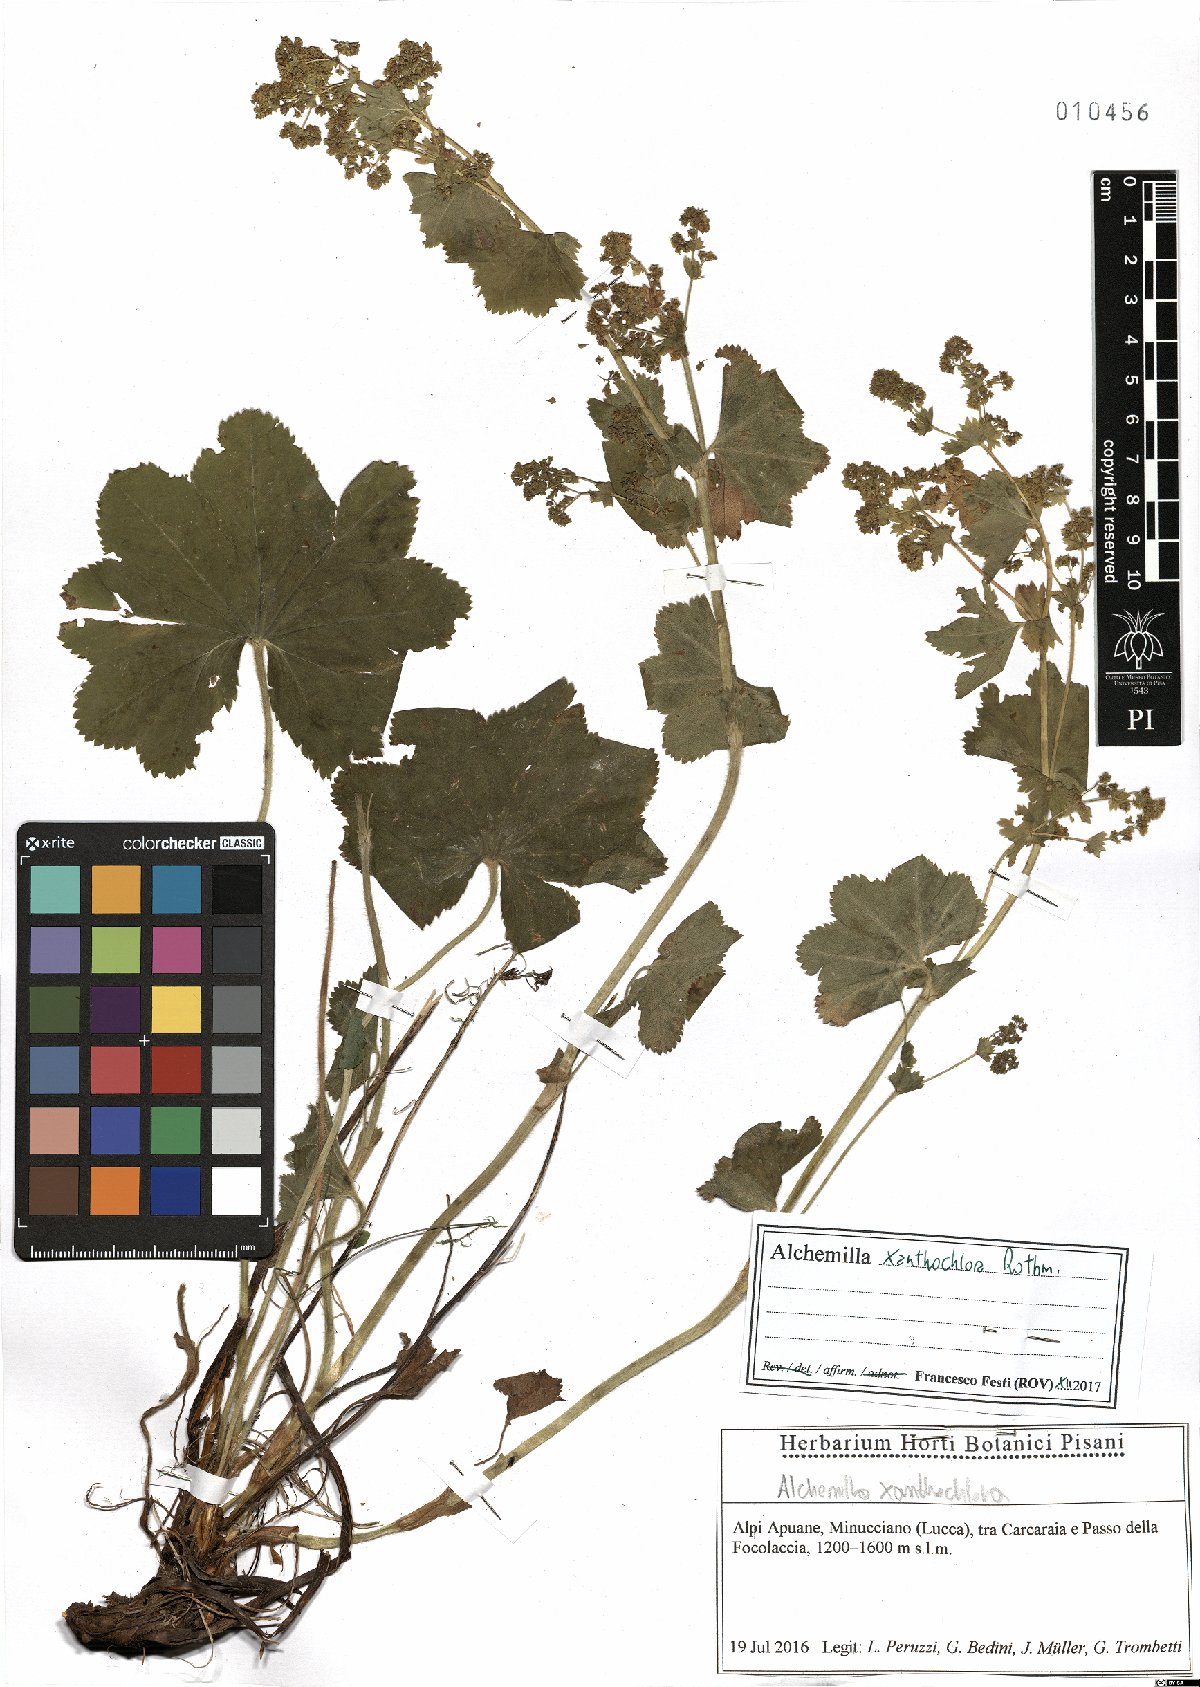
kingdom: Plantae
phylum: Tracheophyta
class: Magnoliopsida
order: Rosales
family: Rosaceae
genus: Alchemilla
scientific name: Alchemilla xanthochlora
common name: Intermediate lady's-mantle
